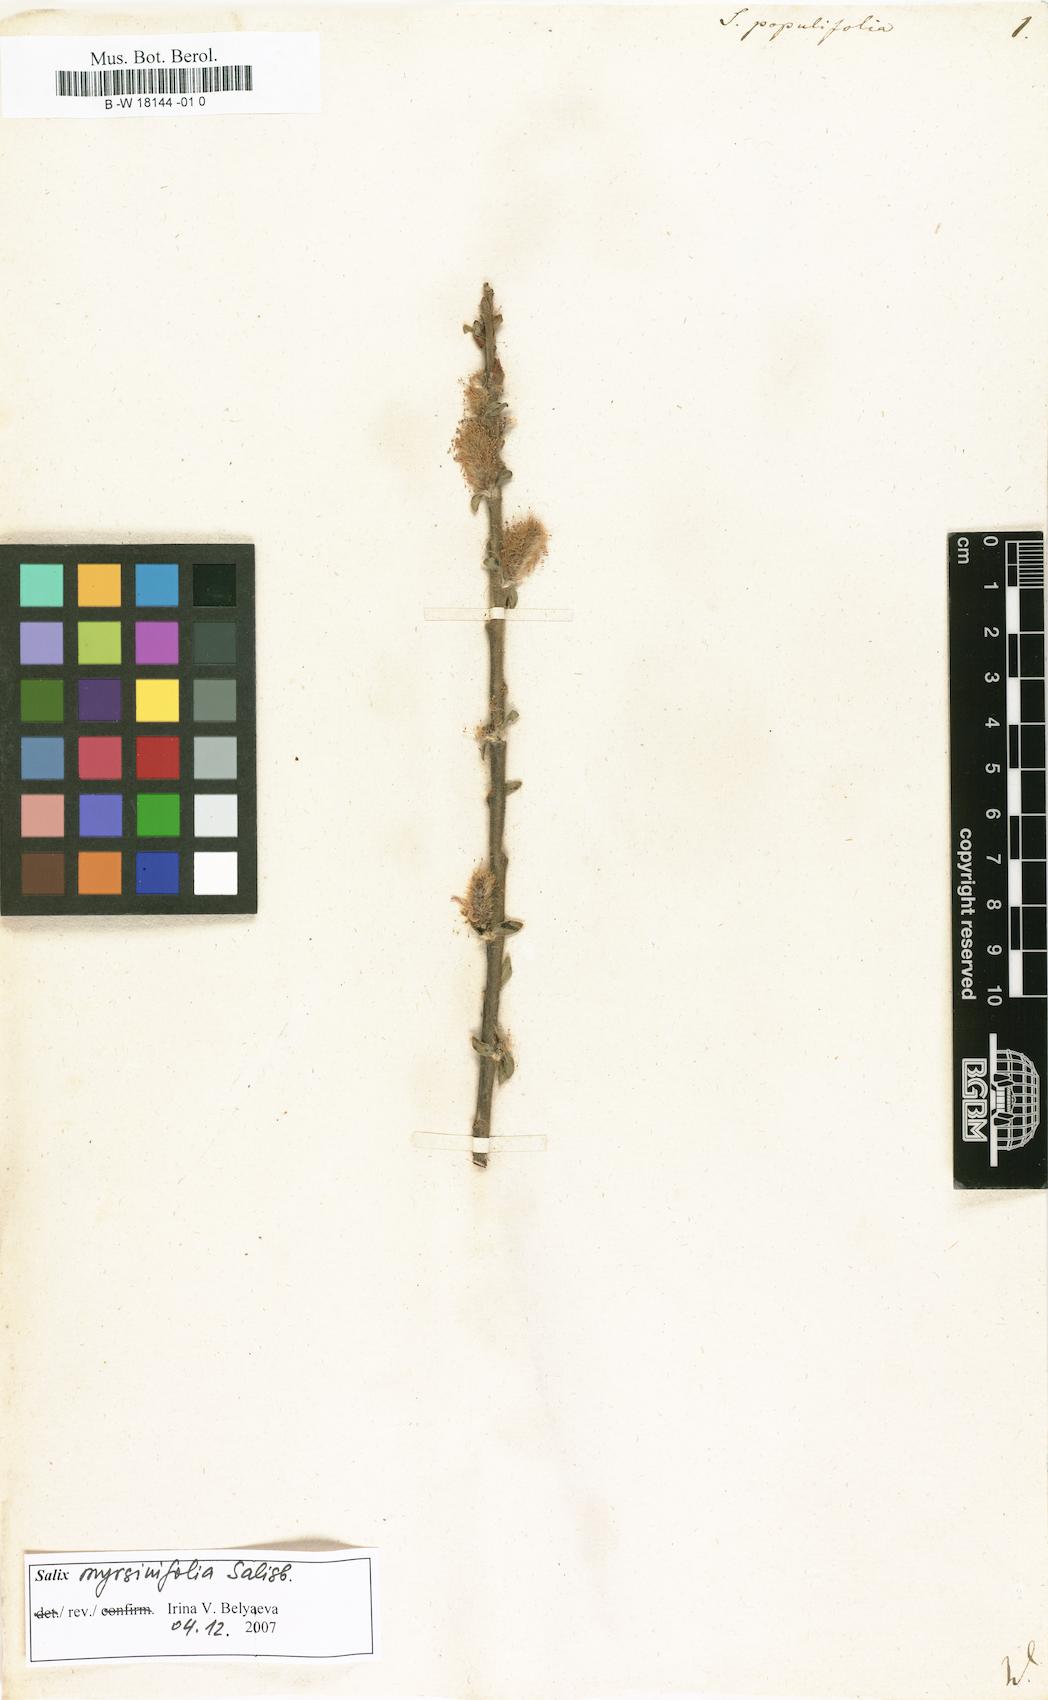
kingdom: Plantae
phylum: Tracheophyta
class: Magnoliopsida
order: Malpighiales
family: Salicaceae
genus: Salix
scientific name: Salix
